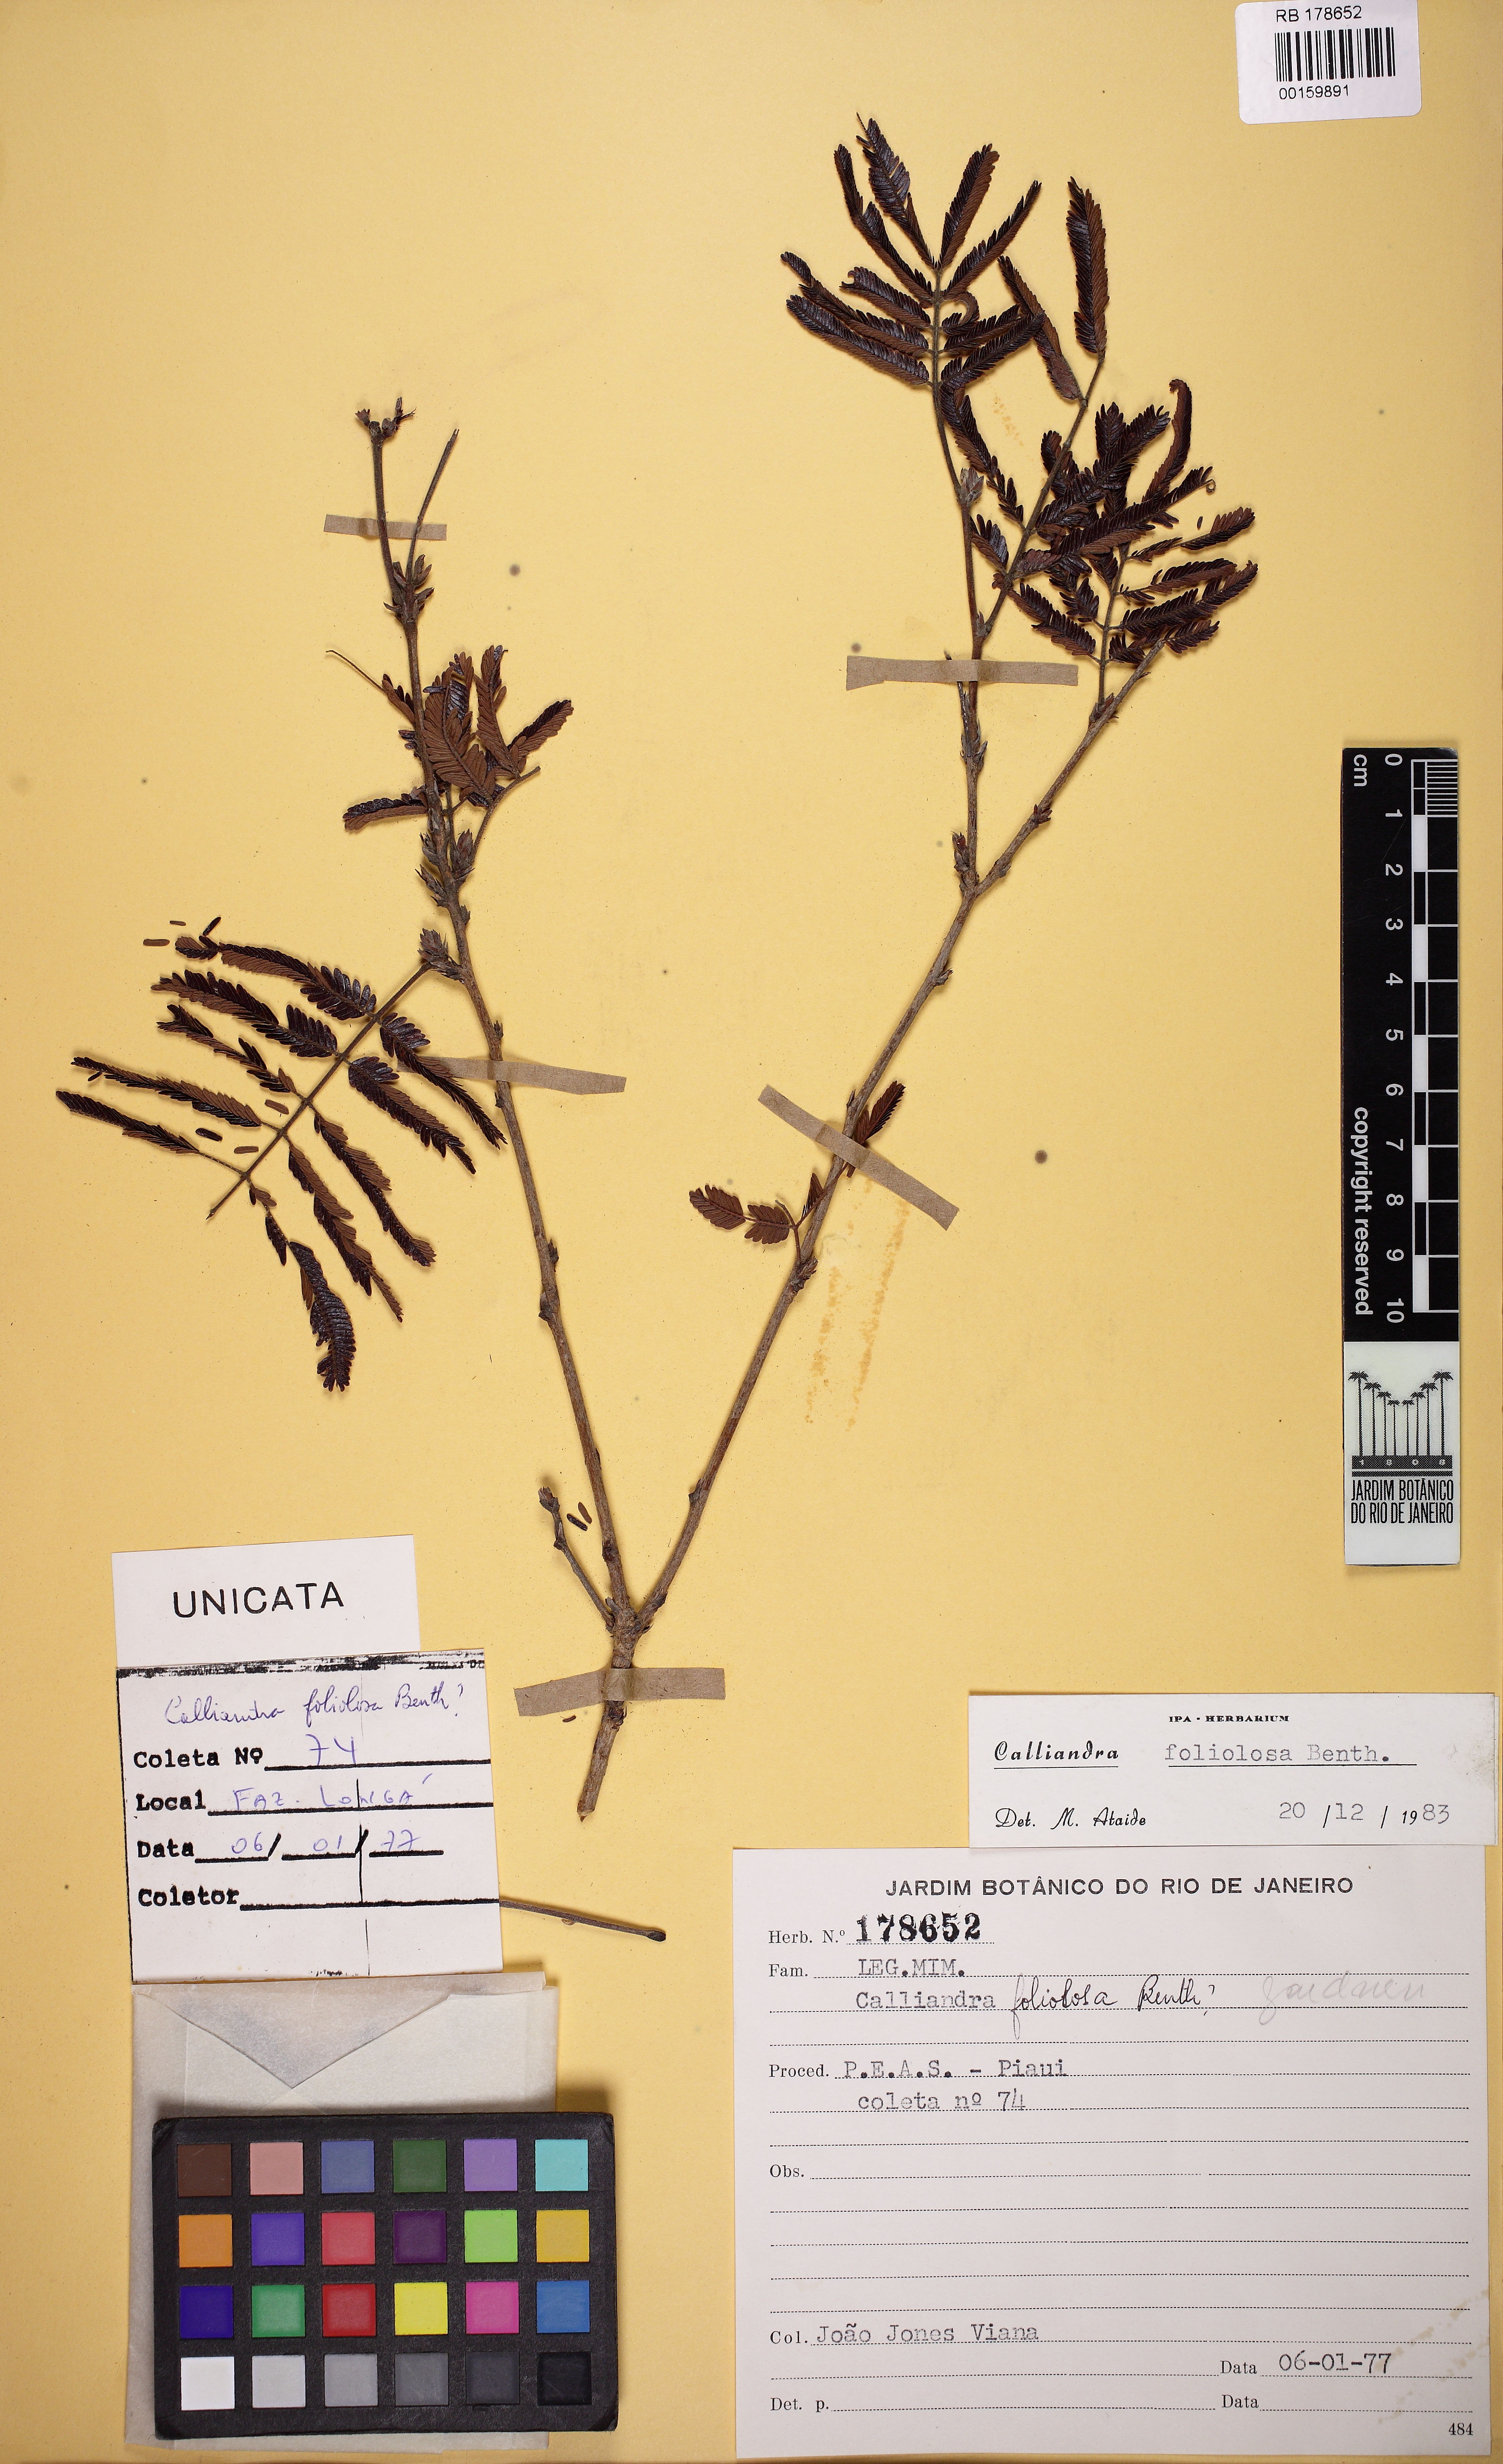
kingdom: Plantae
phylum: Tracheophyta
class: Magnoliopsida
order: Fabales
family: Fabaceae
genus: Calliandra
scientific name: Calliandra foliolosa
